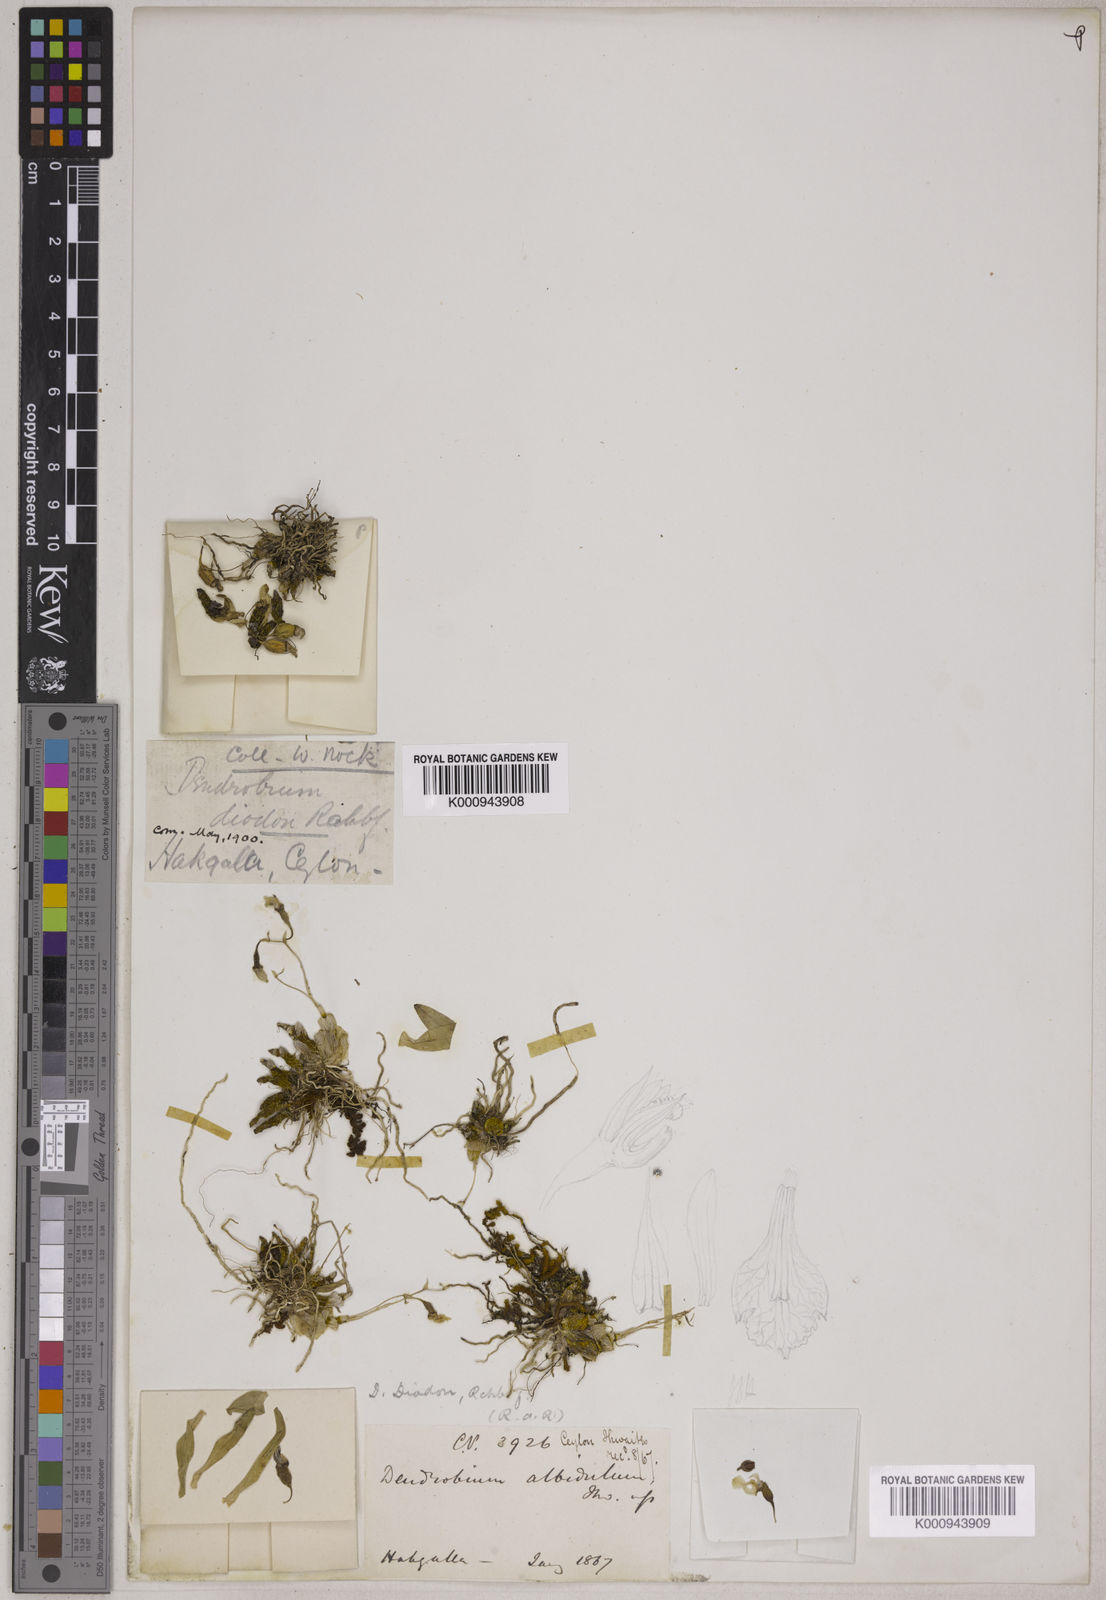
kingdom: Plantae
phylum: Tracheophyta
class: Liliopsida
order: Asparagales
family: Orchidaceae
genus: Dendrobium
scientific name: Dendrobium diodon
